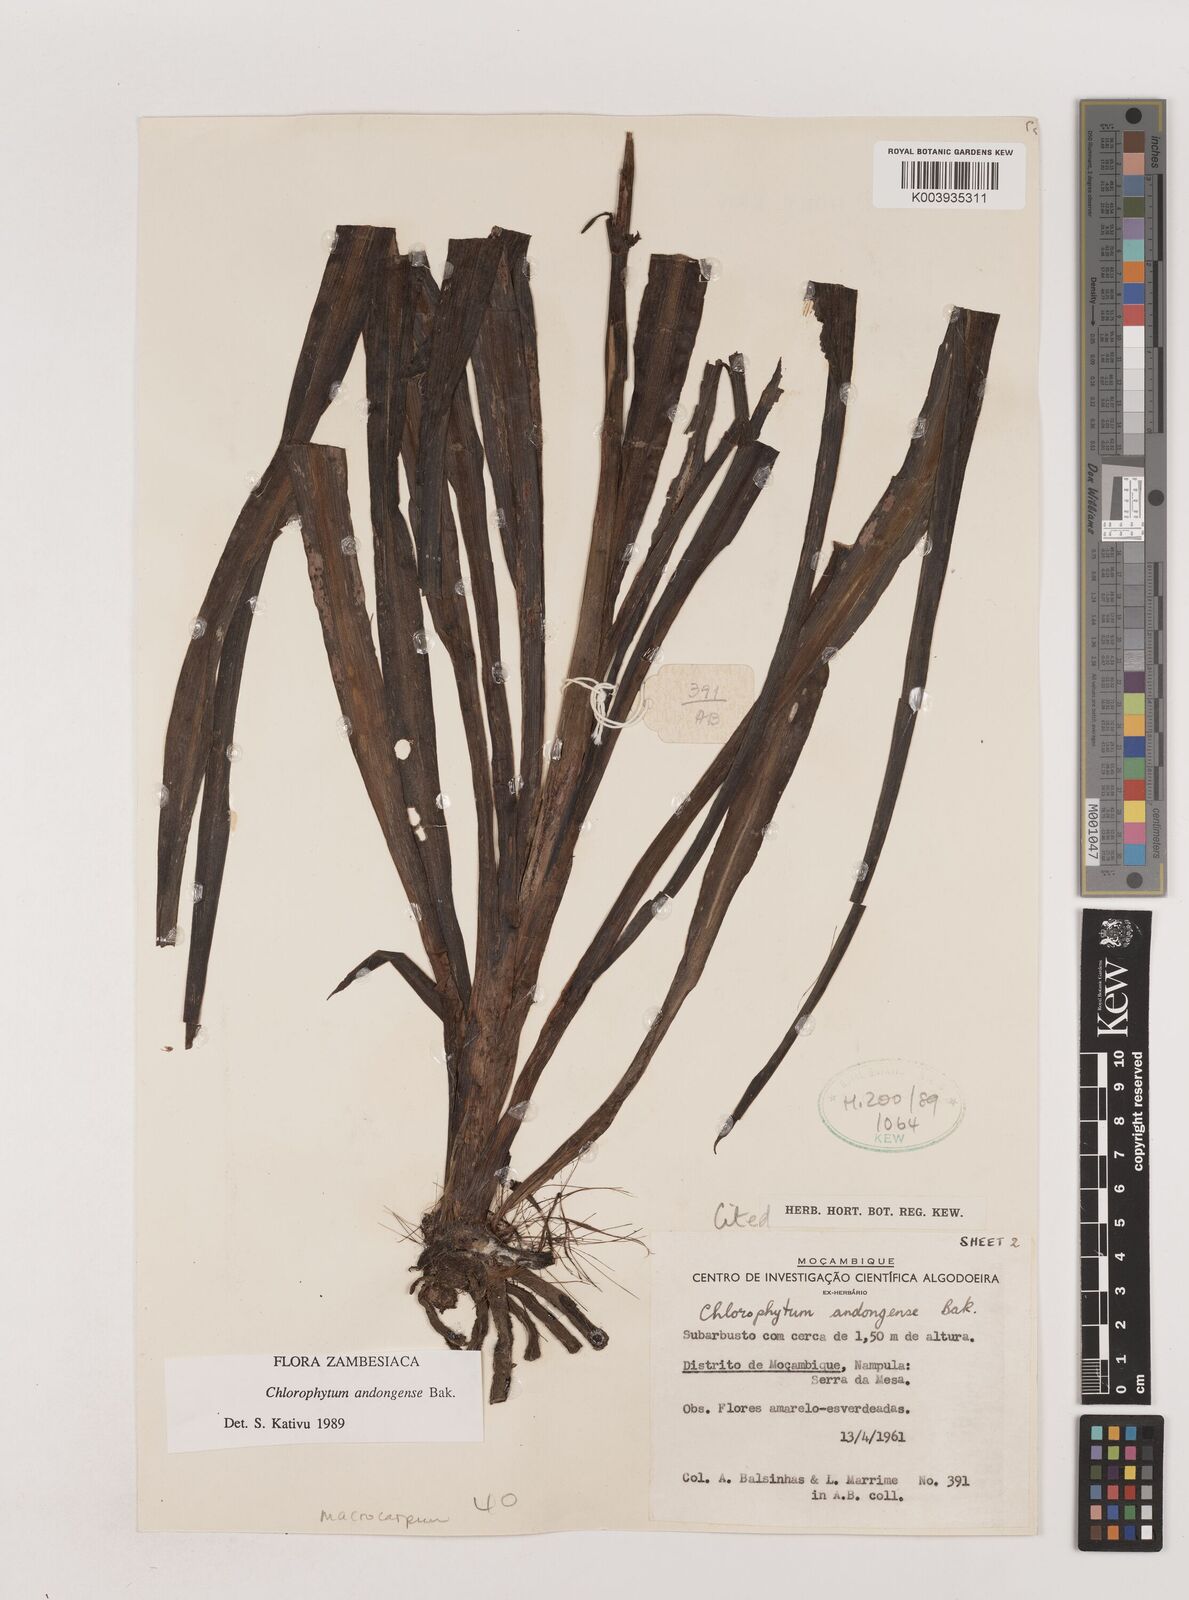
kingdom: Plantae
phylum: Tracheophyta
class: Liliopsida
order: Asparagales
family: Asparagaceae
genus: Chlorophytum
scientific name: Chlorophytum andongense
